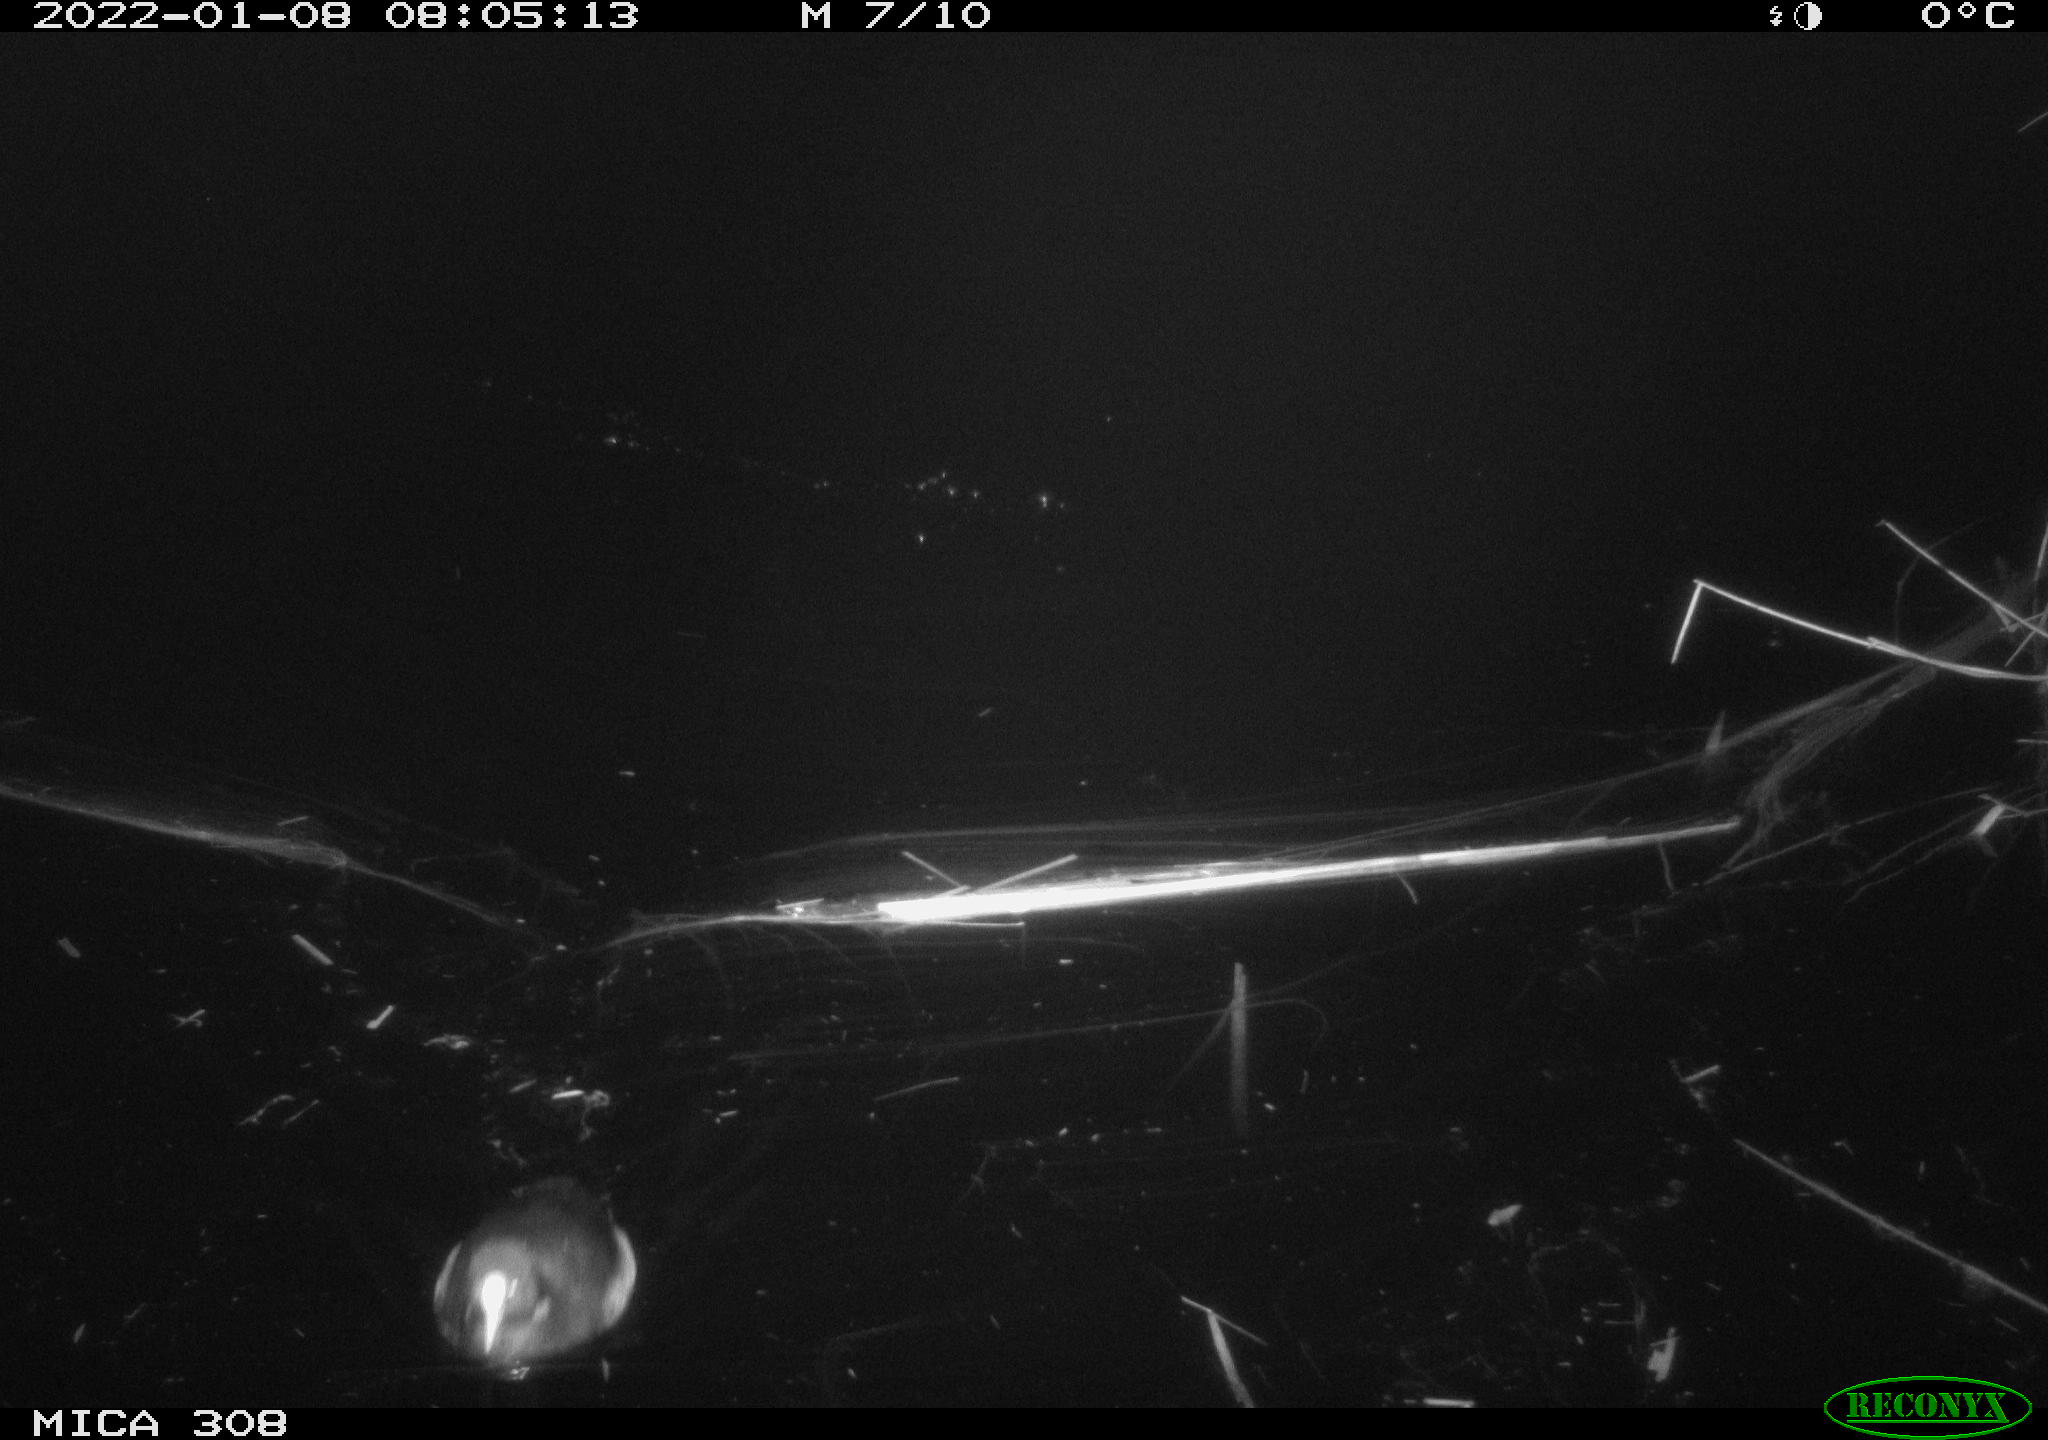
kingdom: Animalia
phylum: Chordata
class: Aves
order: Anseriformes
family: Anatidae
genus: Anas
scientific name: Anas
